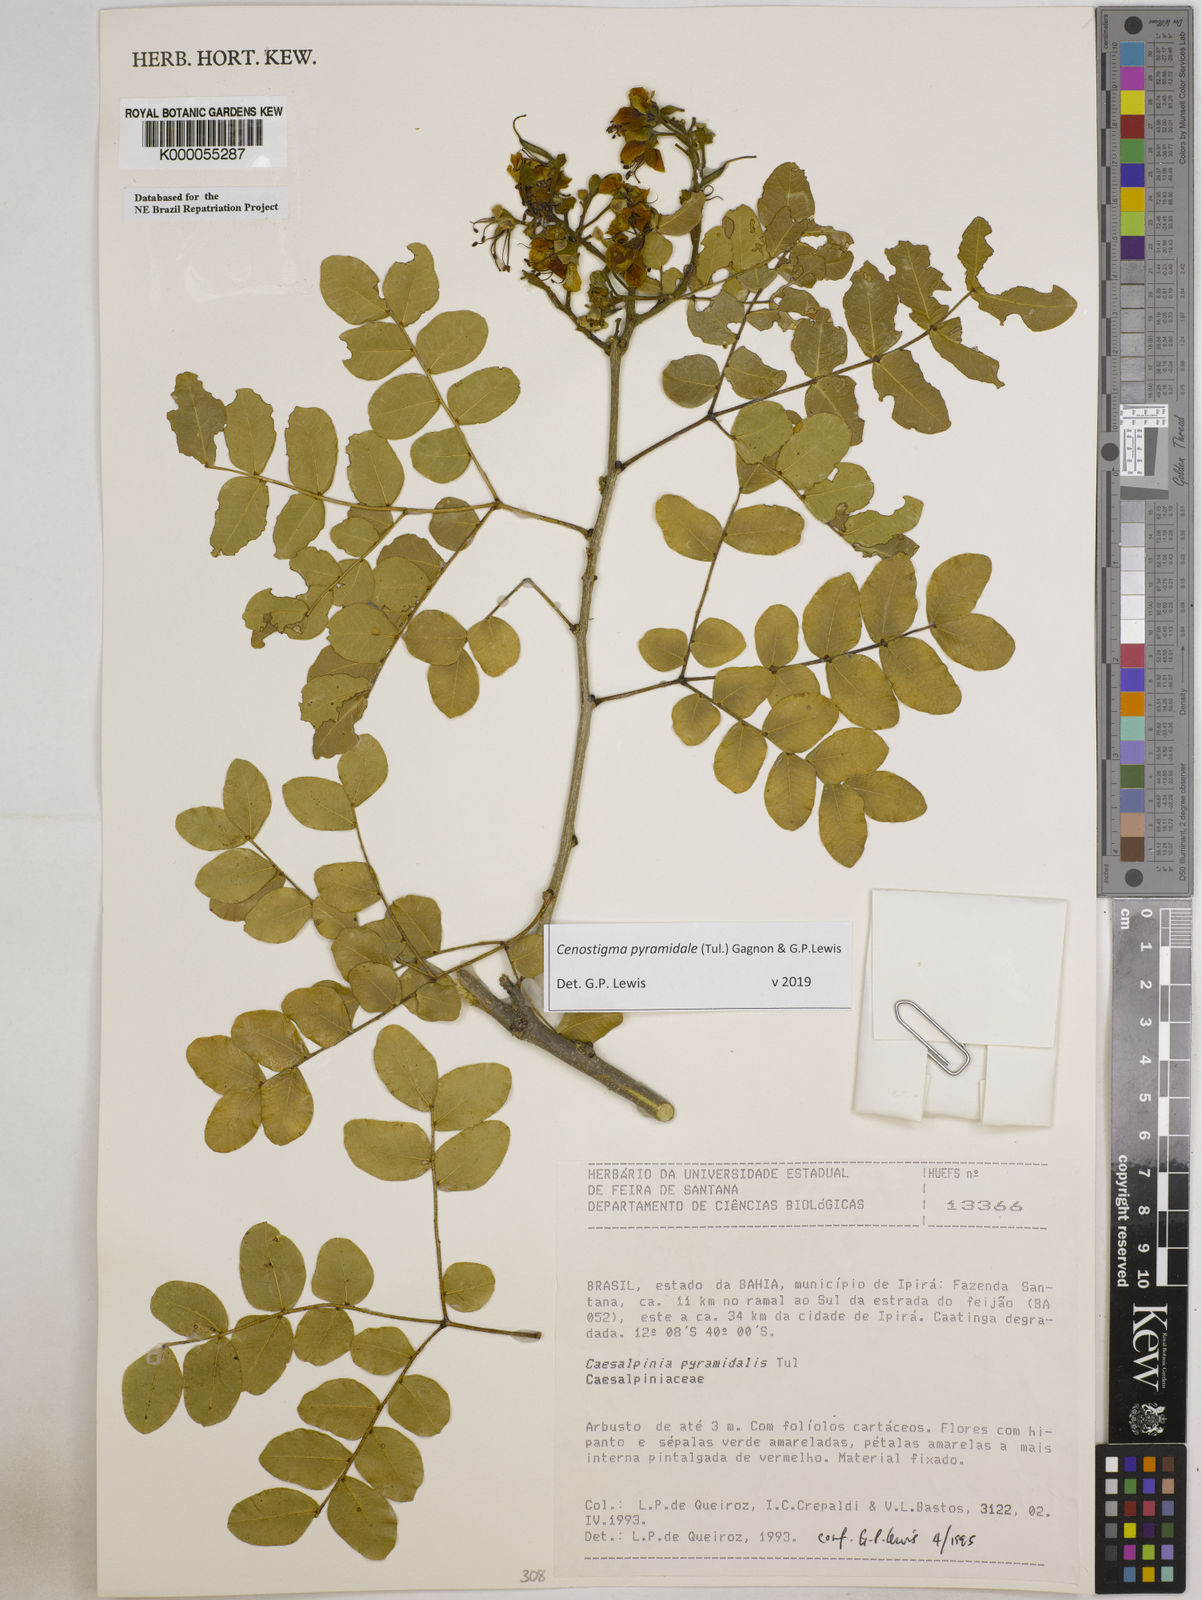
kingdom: Plantae
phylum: Tracheophyta
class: Magnoliopsida
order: Fabales
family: Fabaceae
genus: Cenostigma
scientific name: Cenostigma pyramidale
